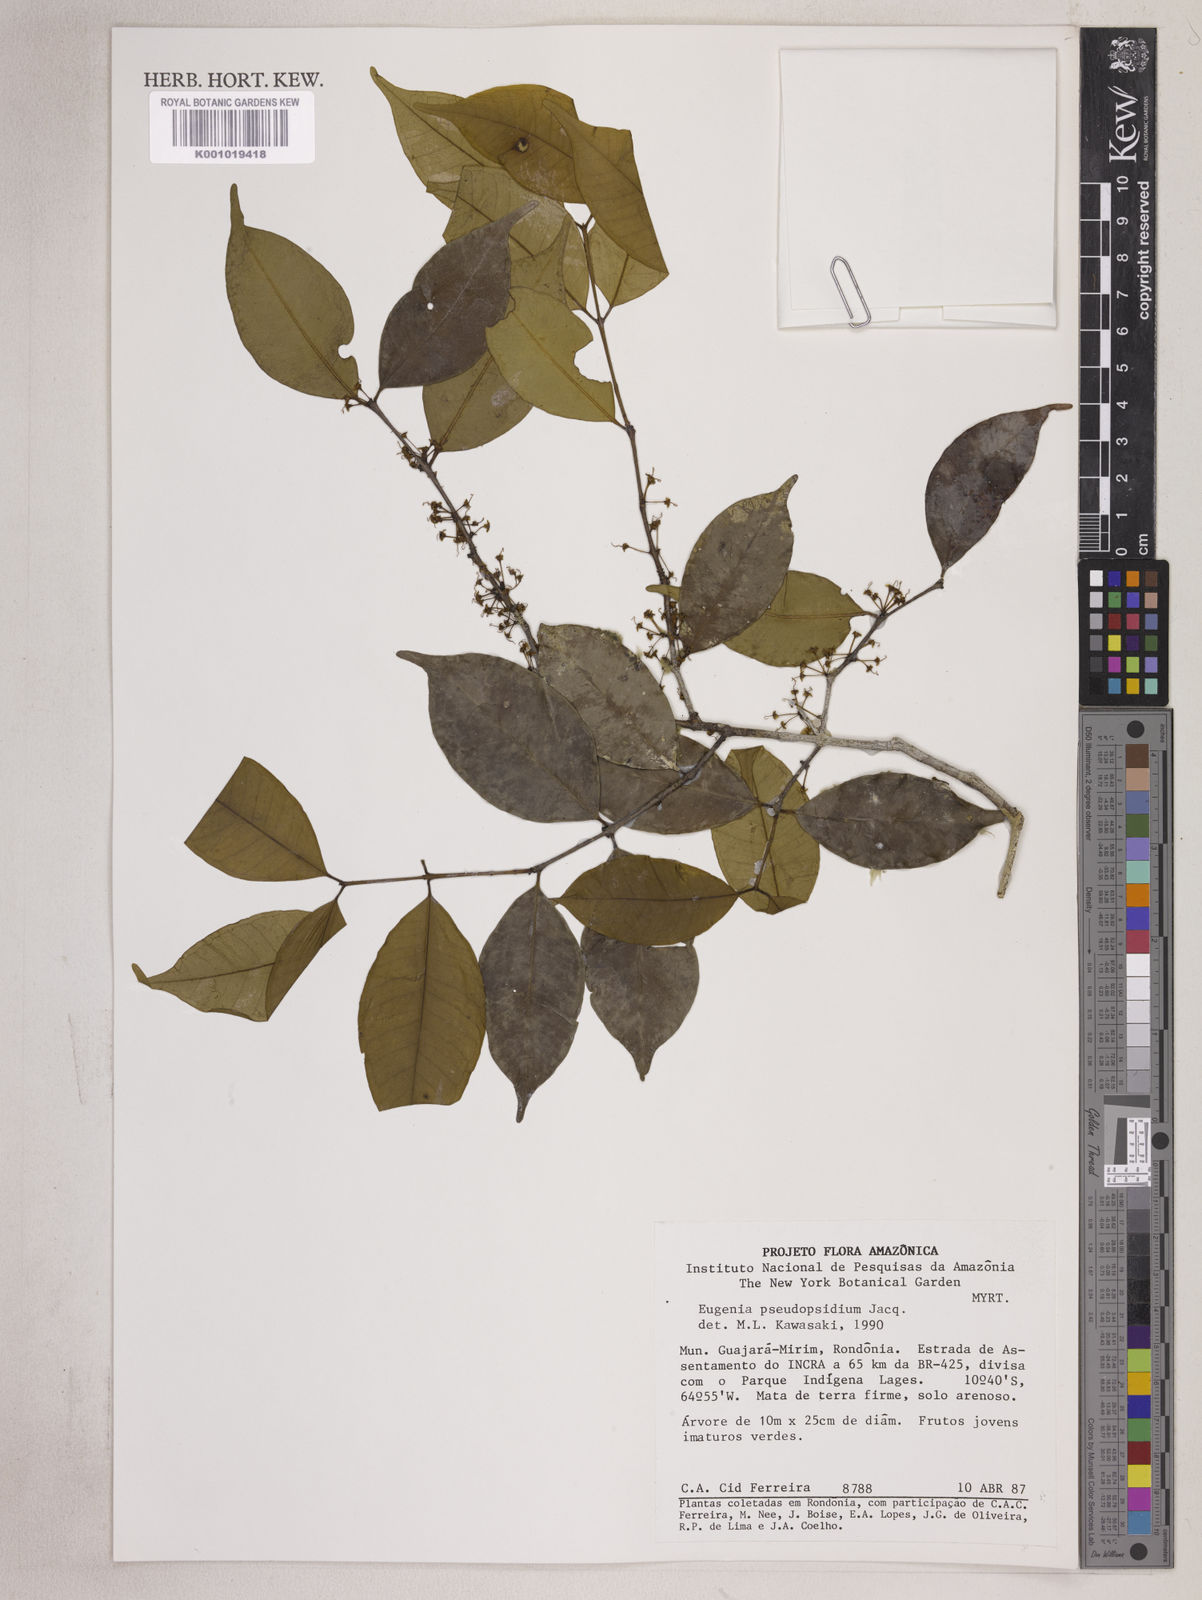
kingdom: Plantae
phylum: Tracheophyta
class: Magnoliopsida
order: Myrtales
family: Myrtaceae
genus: Eugenia
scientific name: Eugenia pseudopsidium
